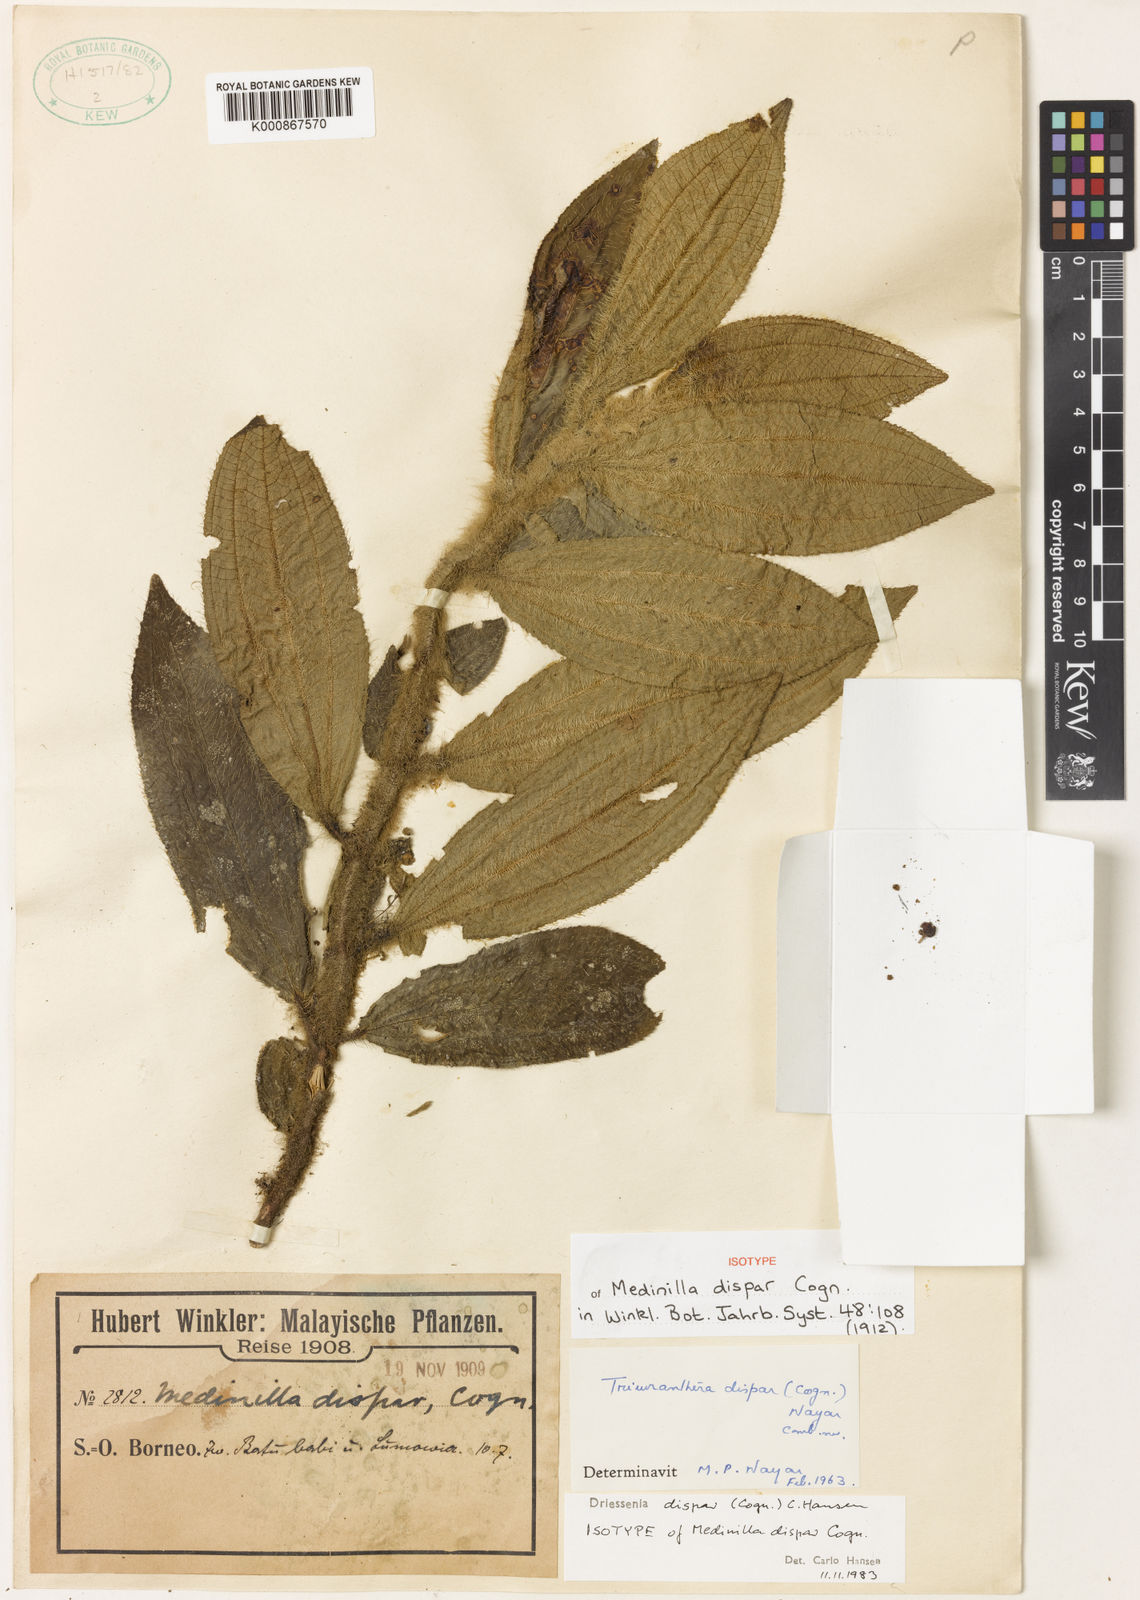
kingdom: Plantae
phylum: Tracheophyta
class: Magnoliopsida
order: Myrtales
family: Melastomataceae
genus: Driessenia
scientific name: Driessenia dispar
